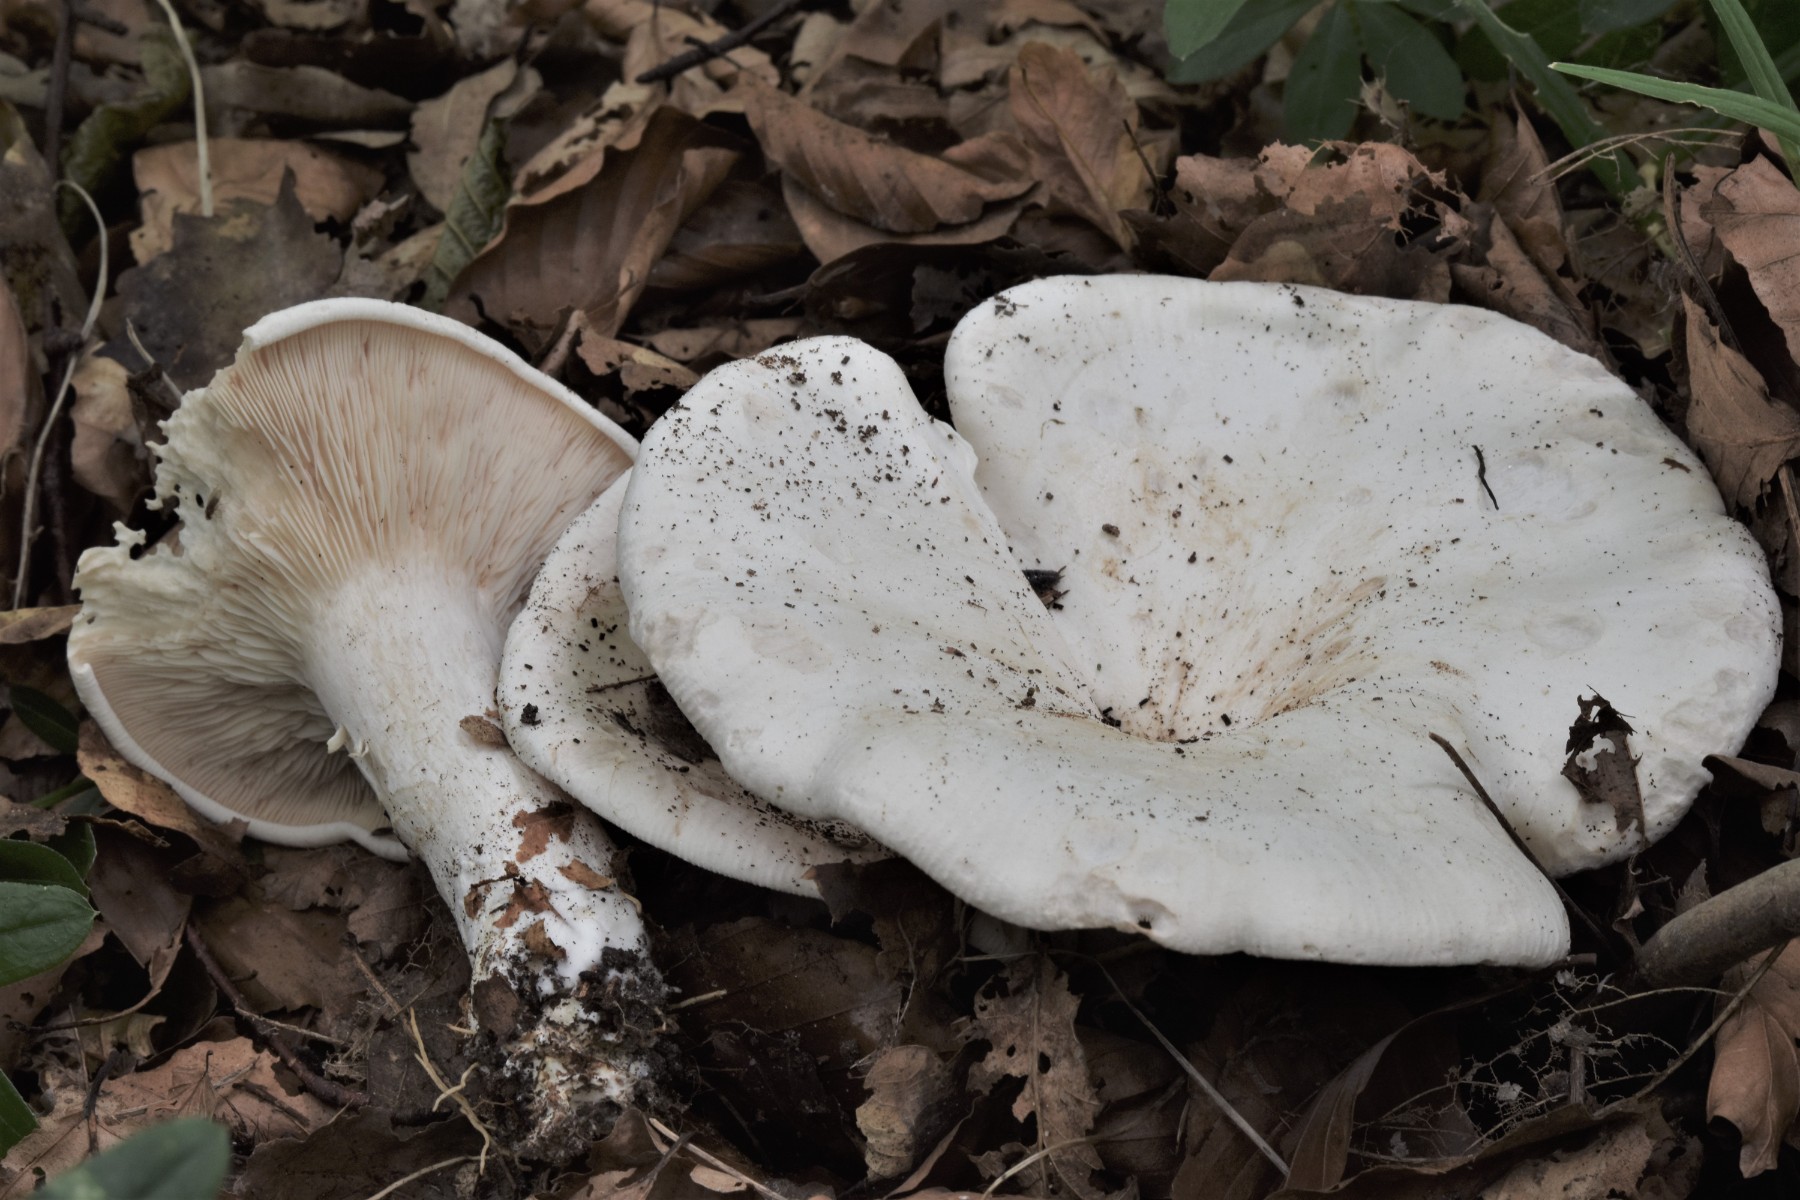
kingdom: Fungi
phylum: Basidiomycota
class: Agaricomycetes
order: Agaricales
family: Tricholomataceae
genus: Aspropaxillus
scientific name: Aspropaxillus giganteus
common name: kæmpe-tragtridderhat
